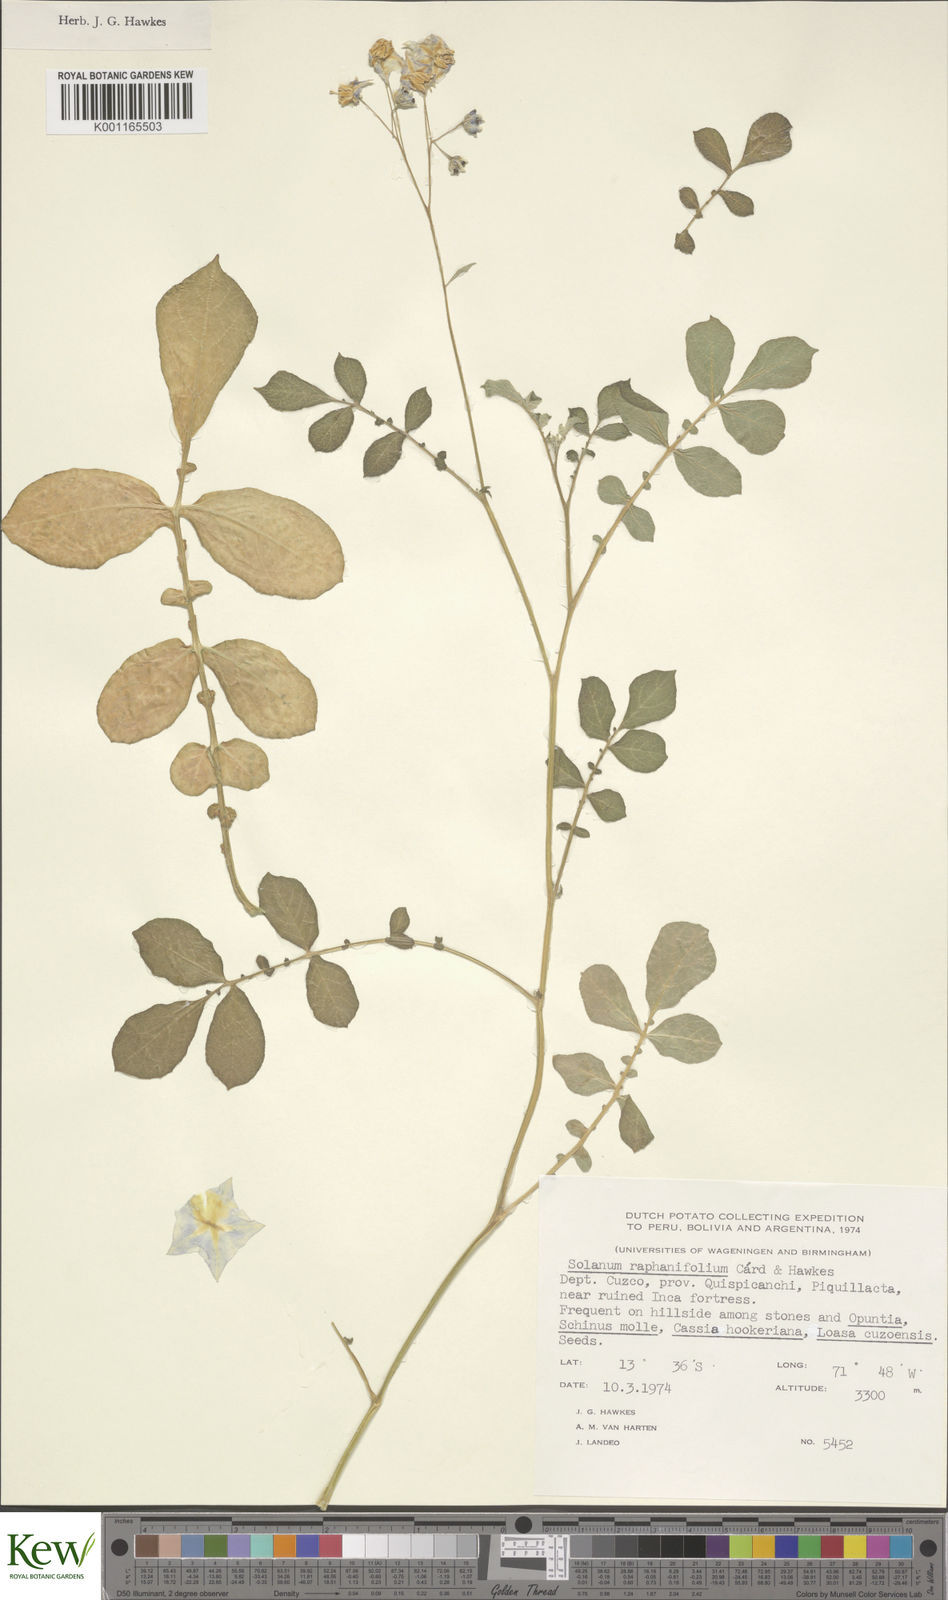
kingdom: Plantae
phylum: Tracheophyta
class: Magnoliopsida
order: Solanales
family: Solanaceae
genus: Solanum
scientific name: Solanum raphanifolium
